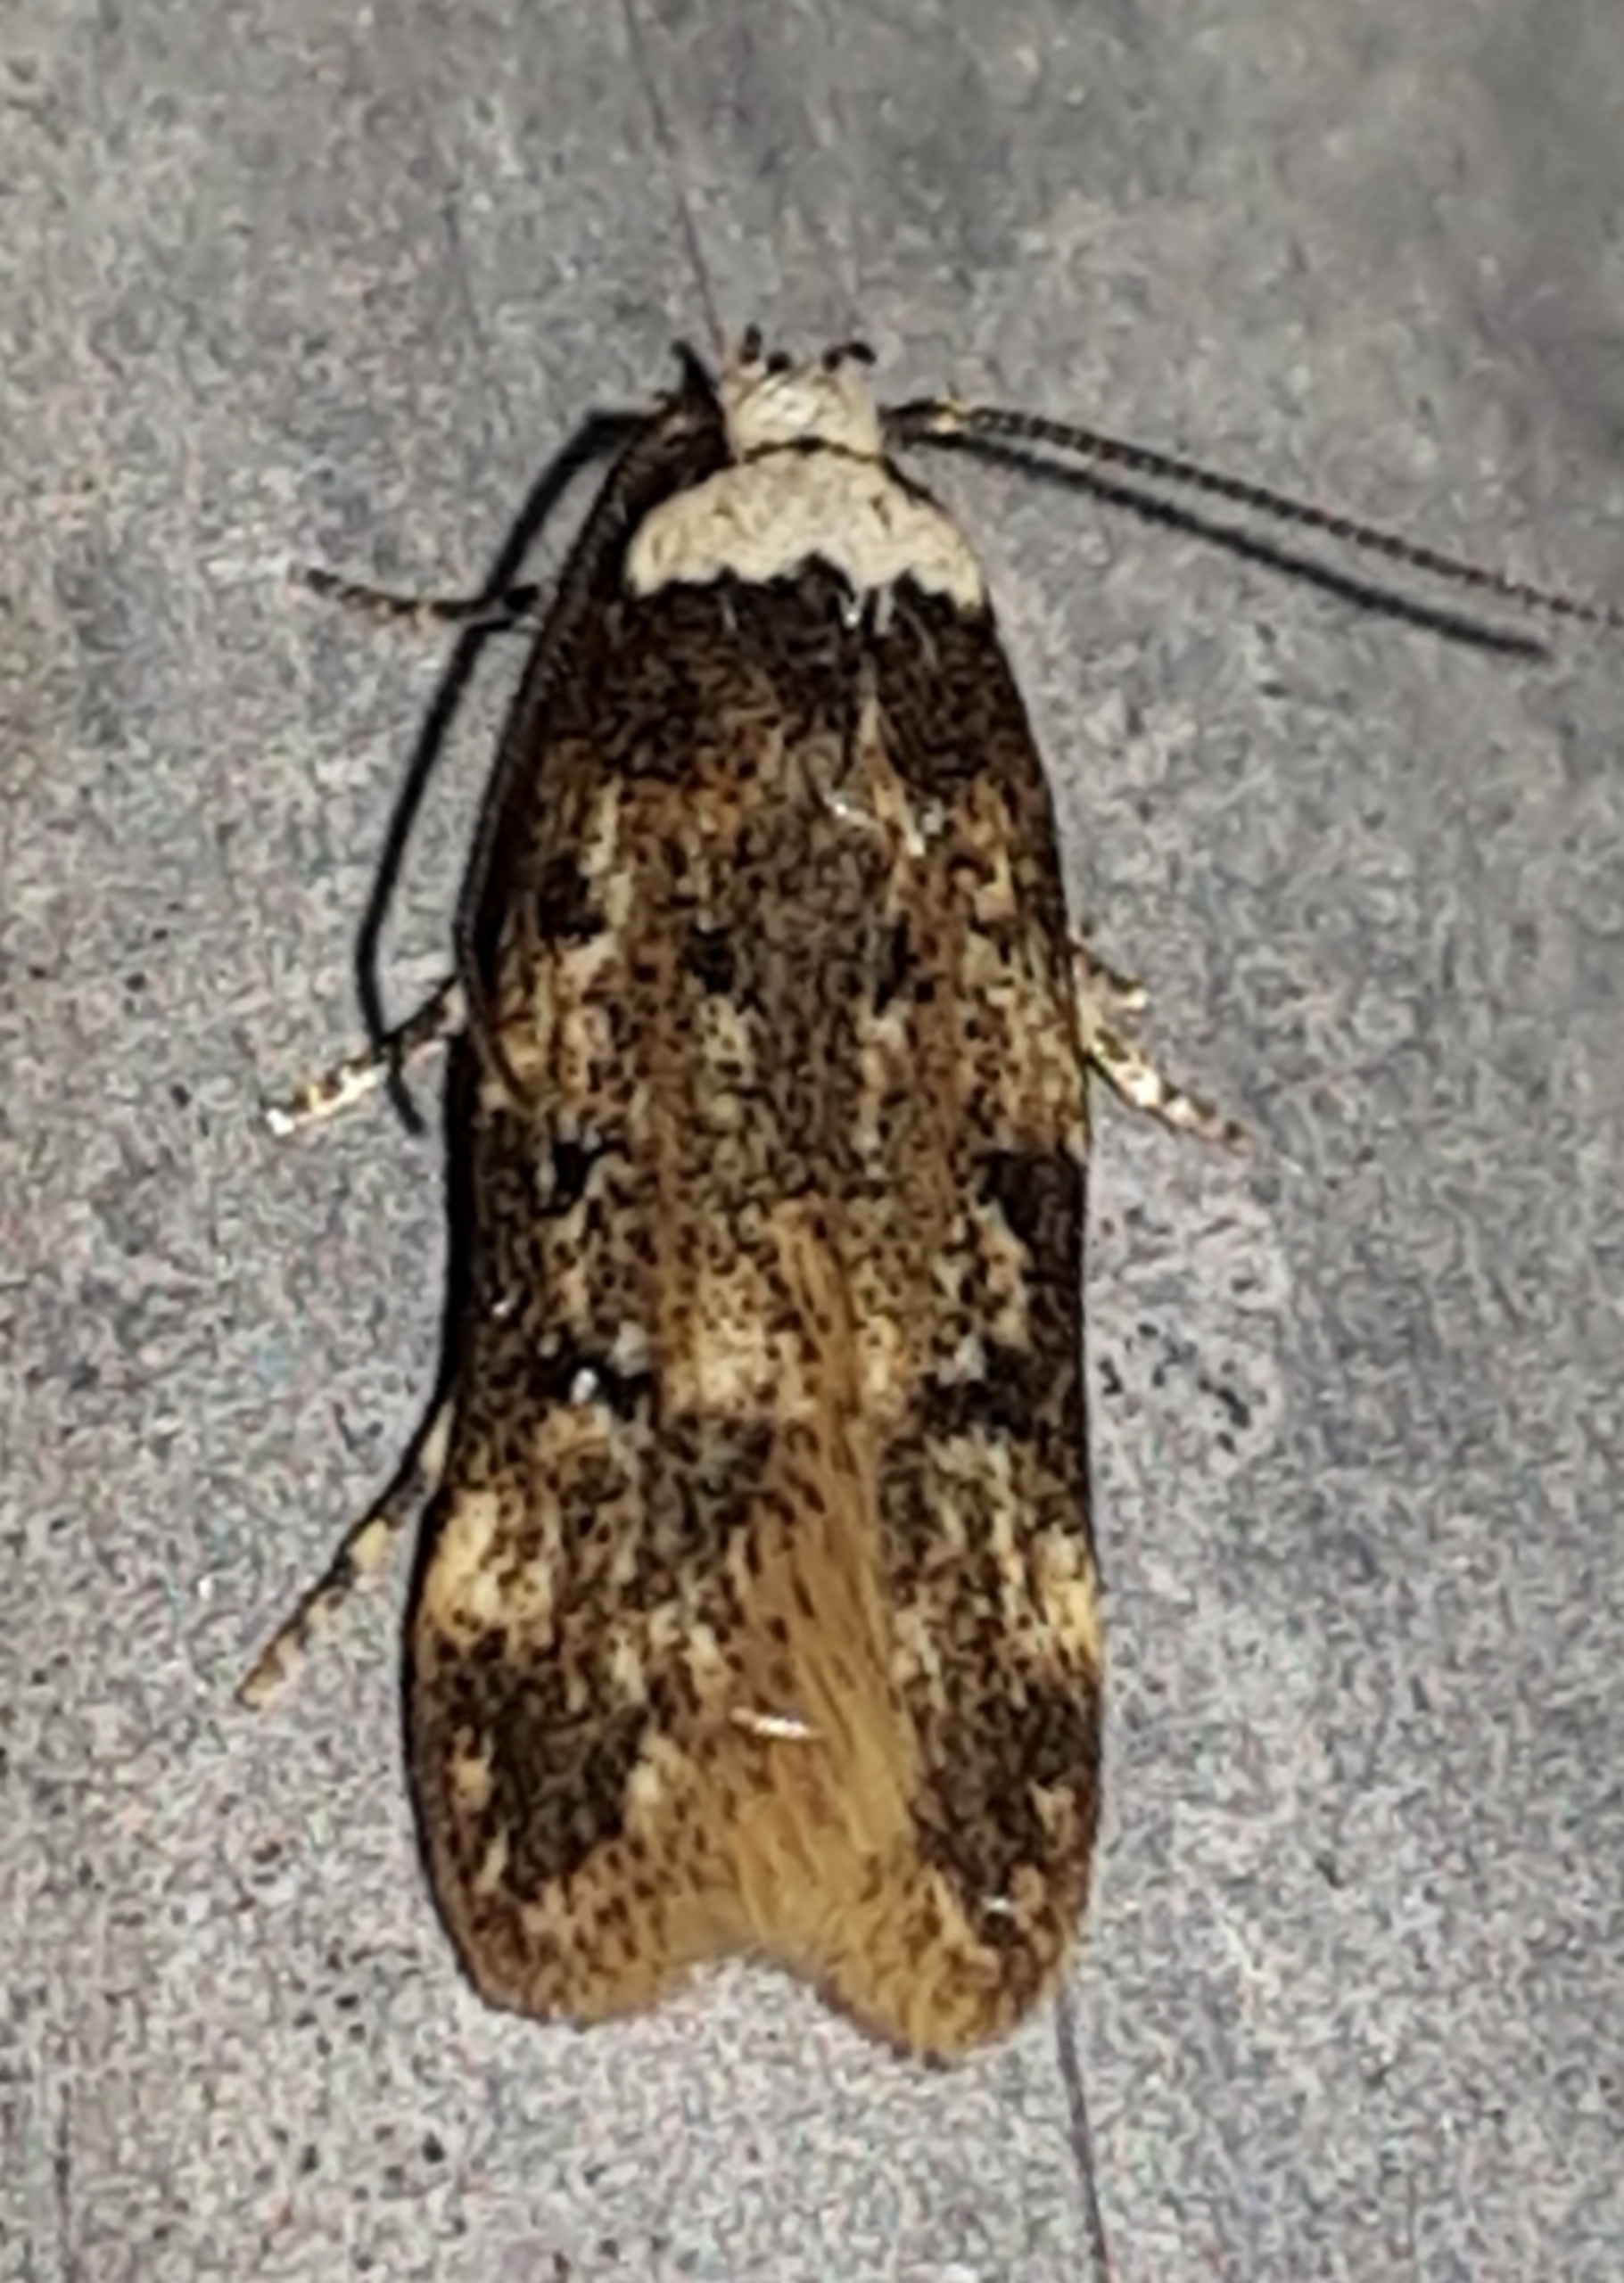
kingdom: Animalia
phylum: Arthropoda
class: Insecta
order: Lepidoptera
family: Oecophoridae
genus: Endrosis
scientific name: Endrosis sarcitrella
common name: Klistermøl
